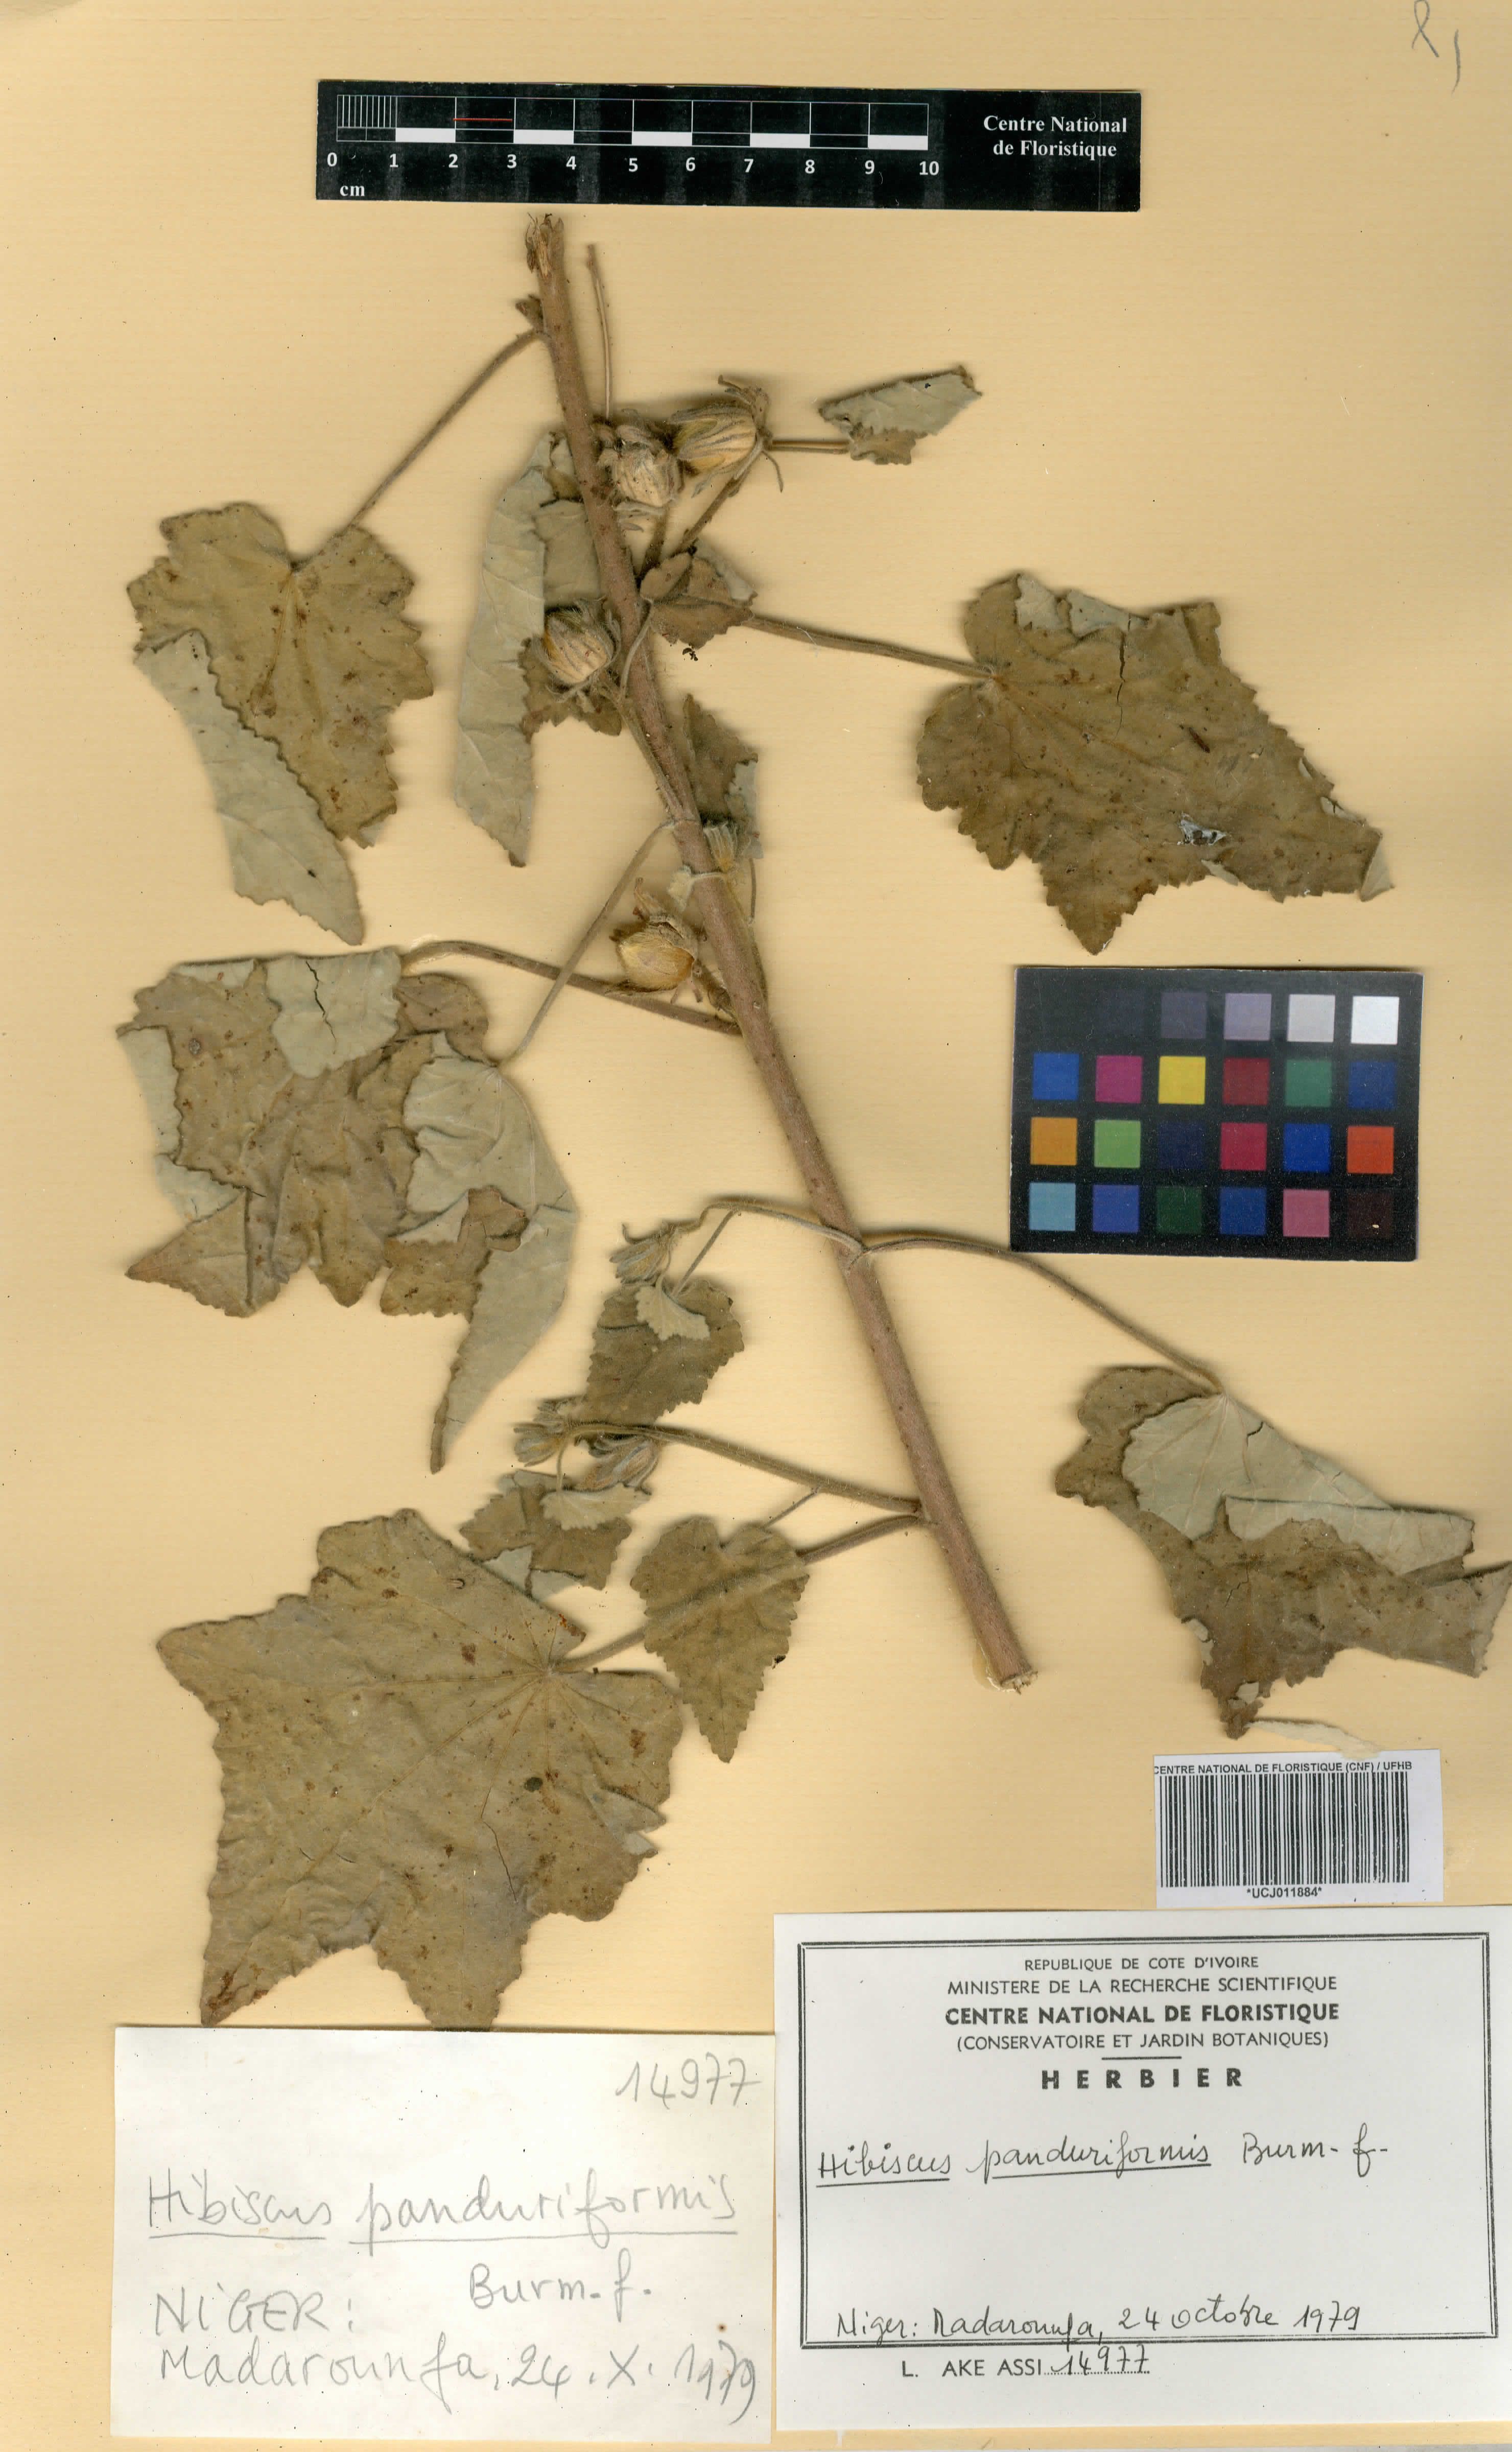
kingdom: Plantae
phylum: Tracheophyta
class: Magnoliopsida
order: Malvales
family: Malvaceae
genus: Hibiscus
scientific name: Hibiscus panduriformis
